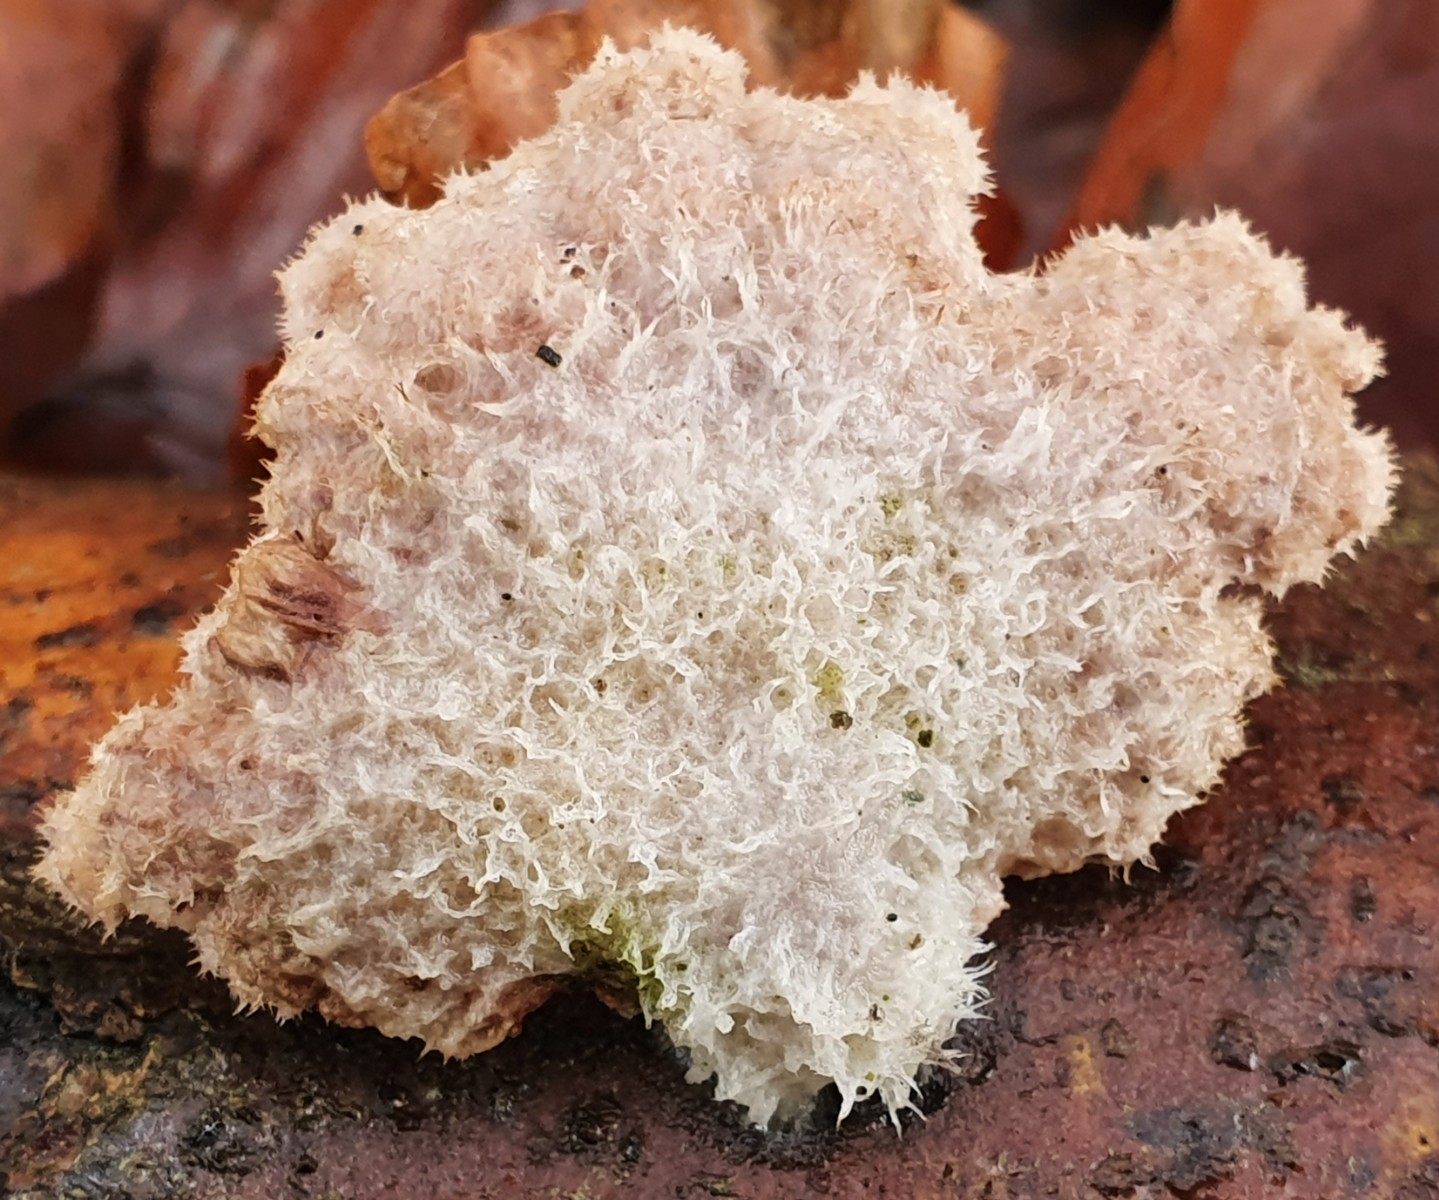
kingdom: Fungi
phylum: Basidiomycota
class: Agaricomycetes
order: Agaricales
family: Schizophyllaceae
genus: Schizophyllum
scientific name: Schizophyllum commune
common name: kløvblad
